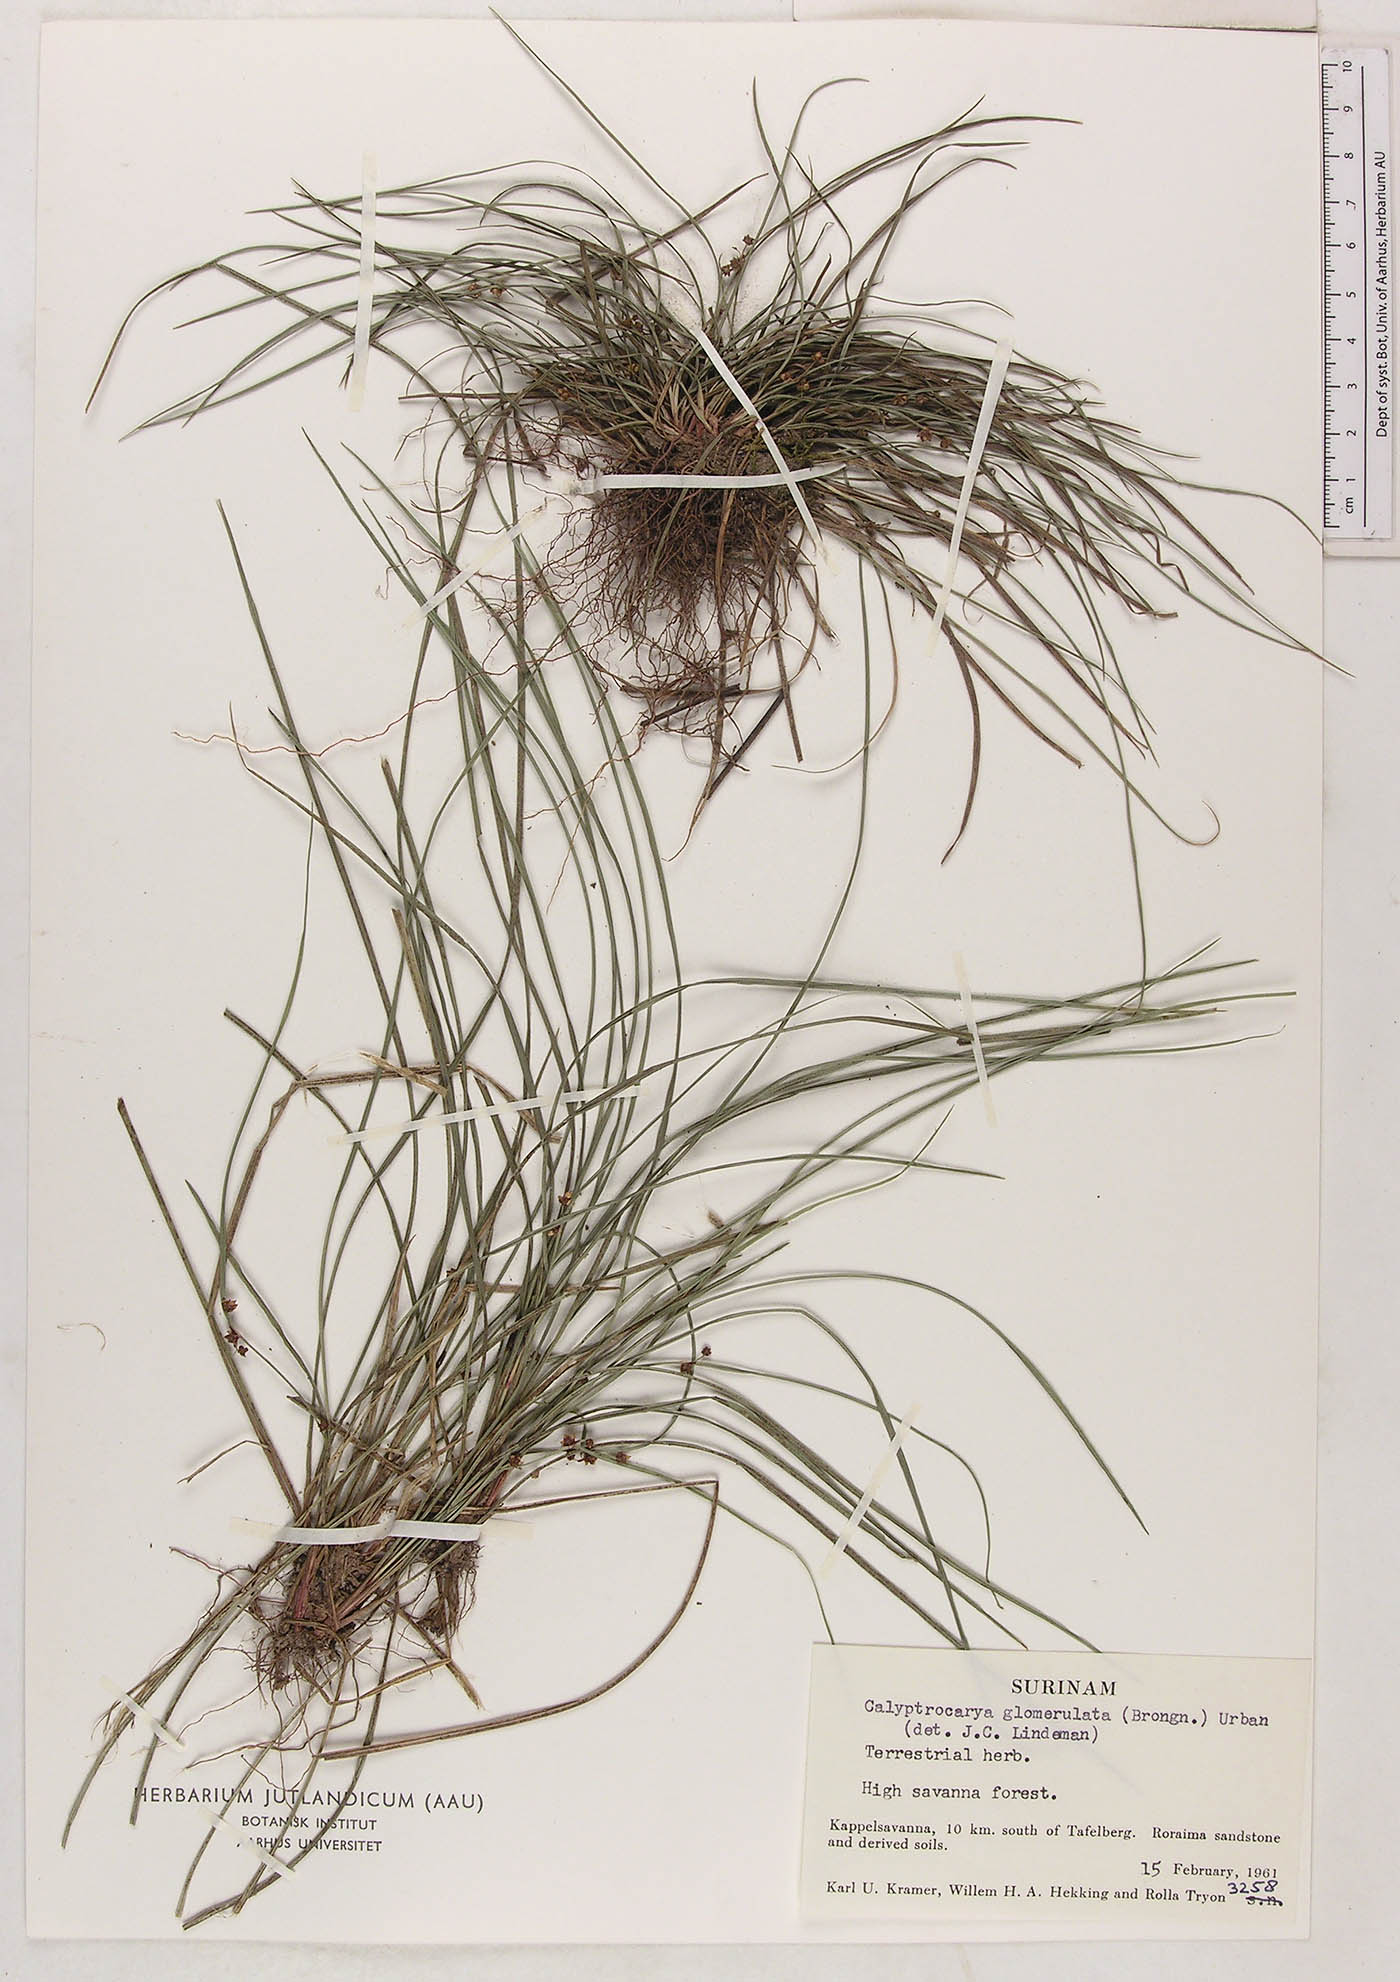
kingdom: Plantae
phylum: Tracheophyta
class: Liliopsida
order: Poales
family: Cyperaceae
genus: Calyptrocarya
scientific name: Calyptrocarya glomerulata
